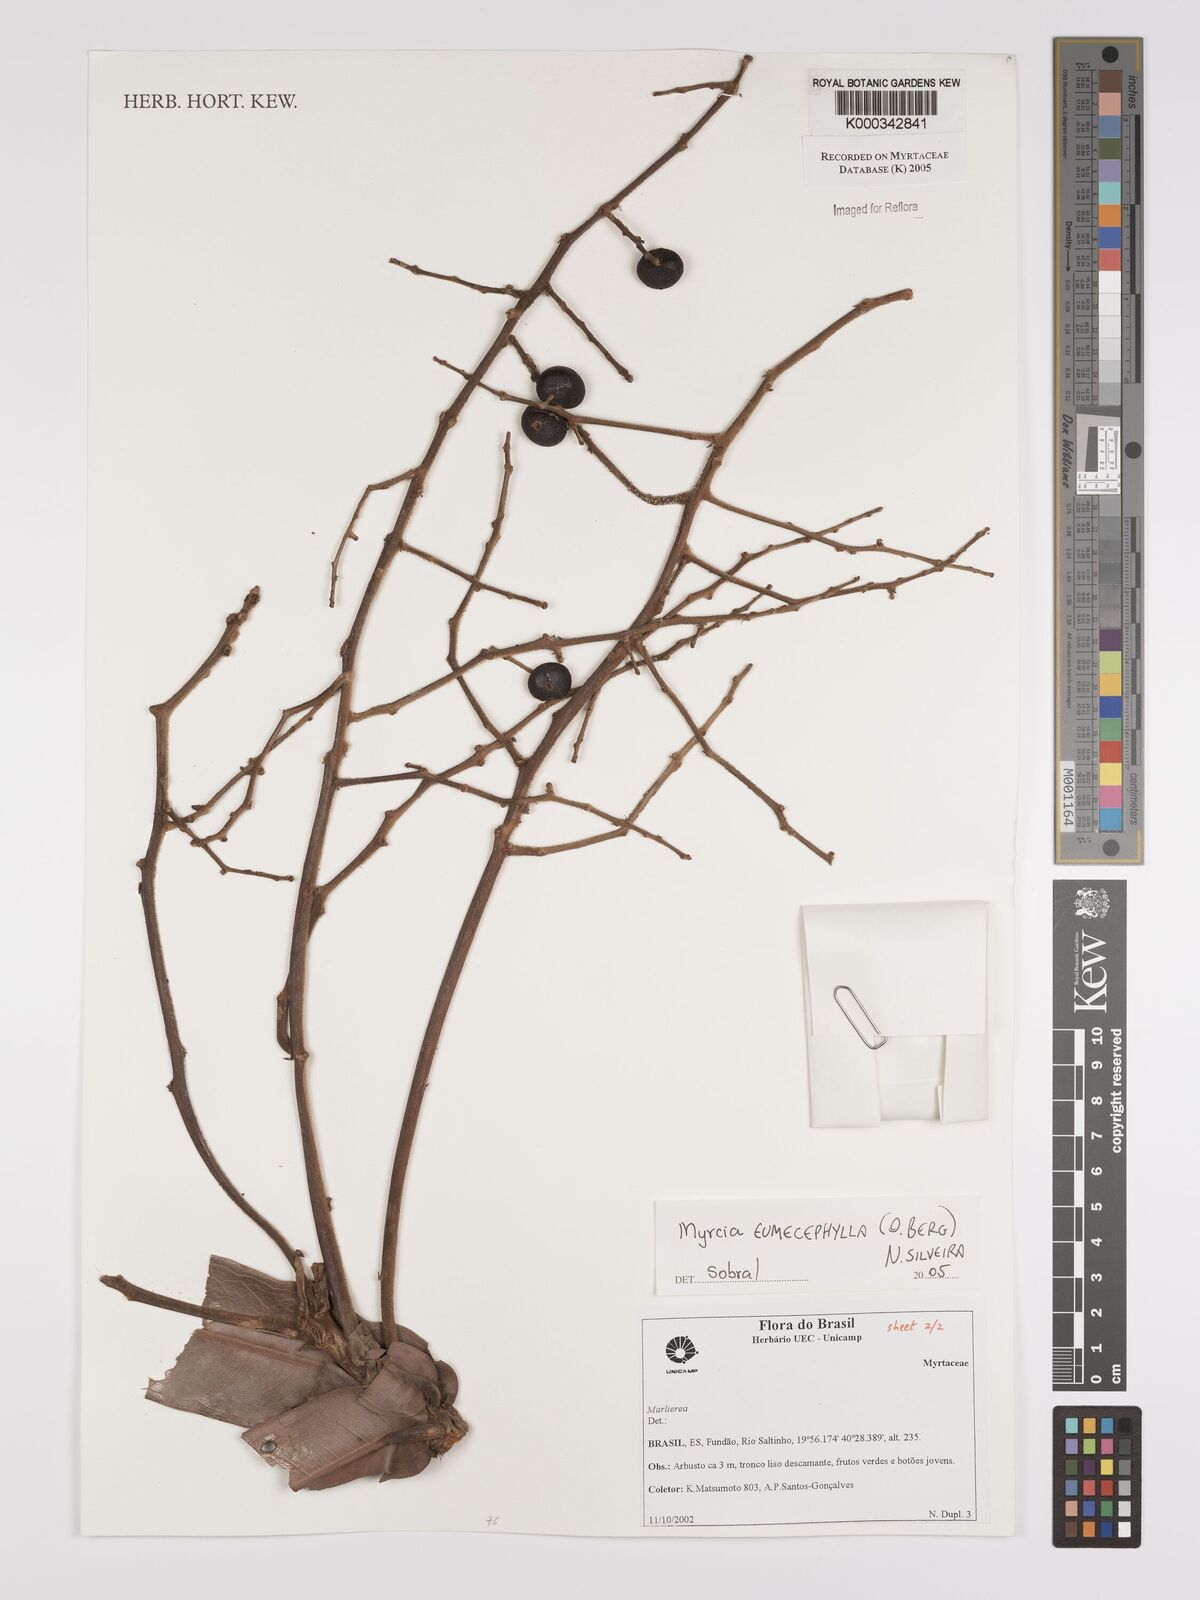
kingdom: Plantae
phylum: Tracheophyta
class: Magnoliopsida
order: Myrtales
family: Myrtaceae
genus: Myrcia
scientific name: Myrcia eumecephylla
